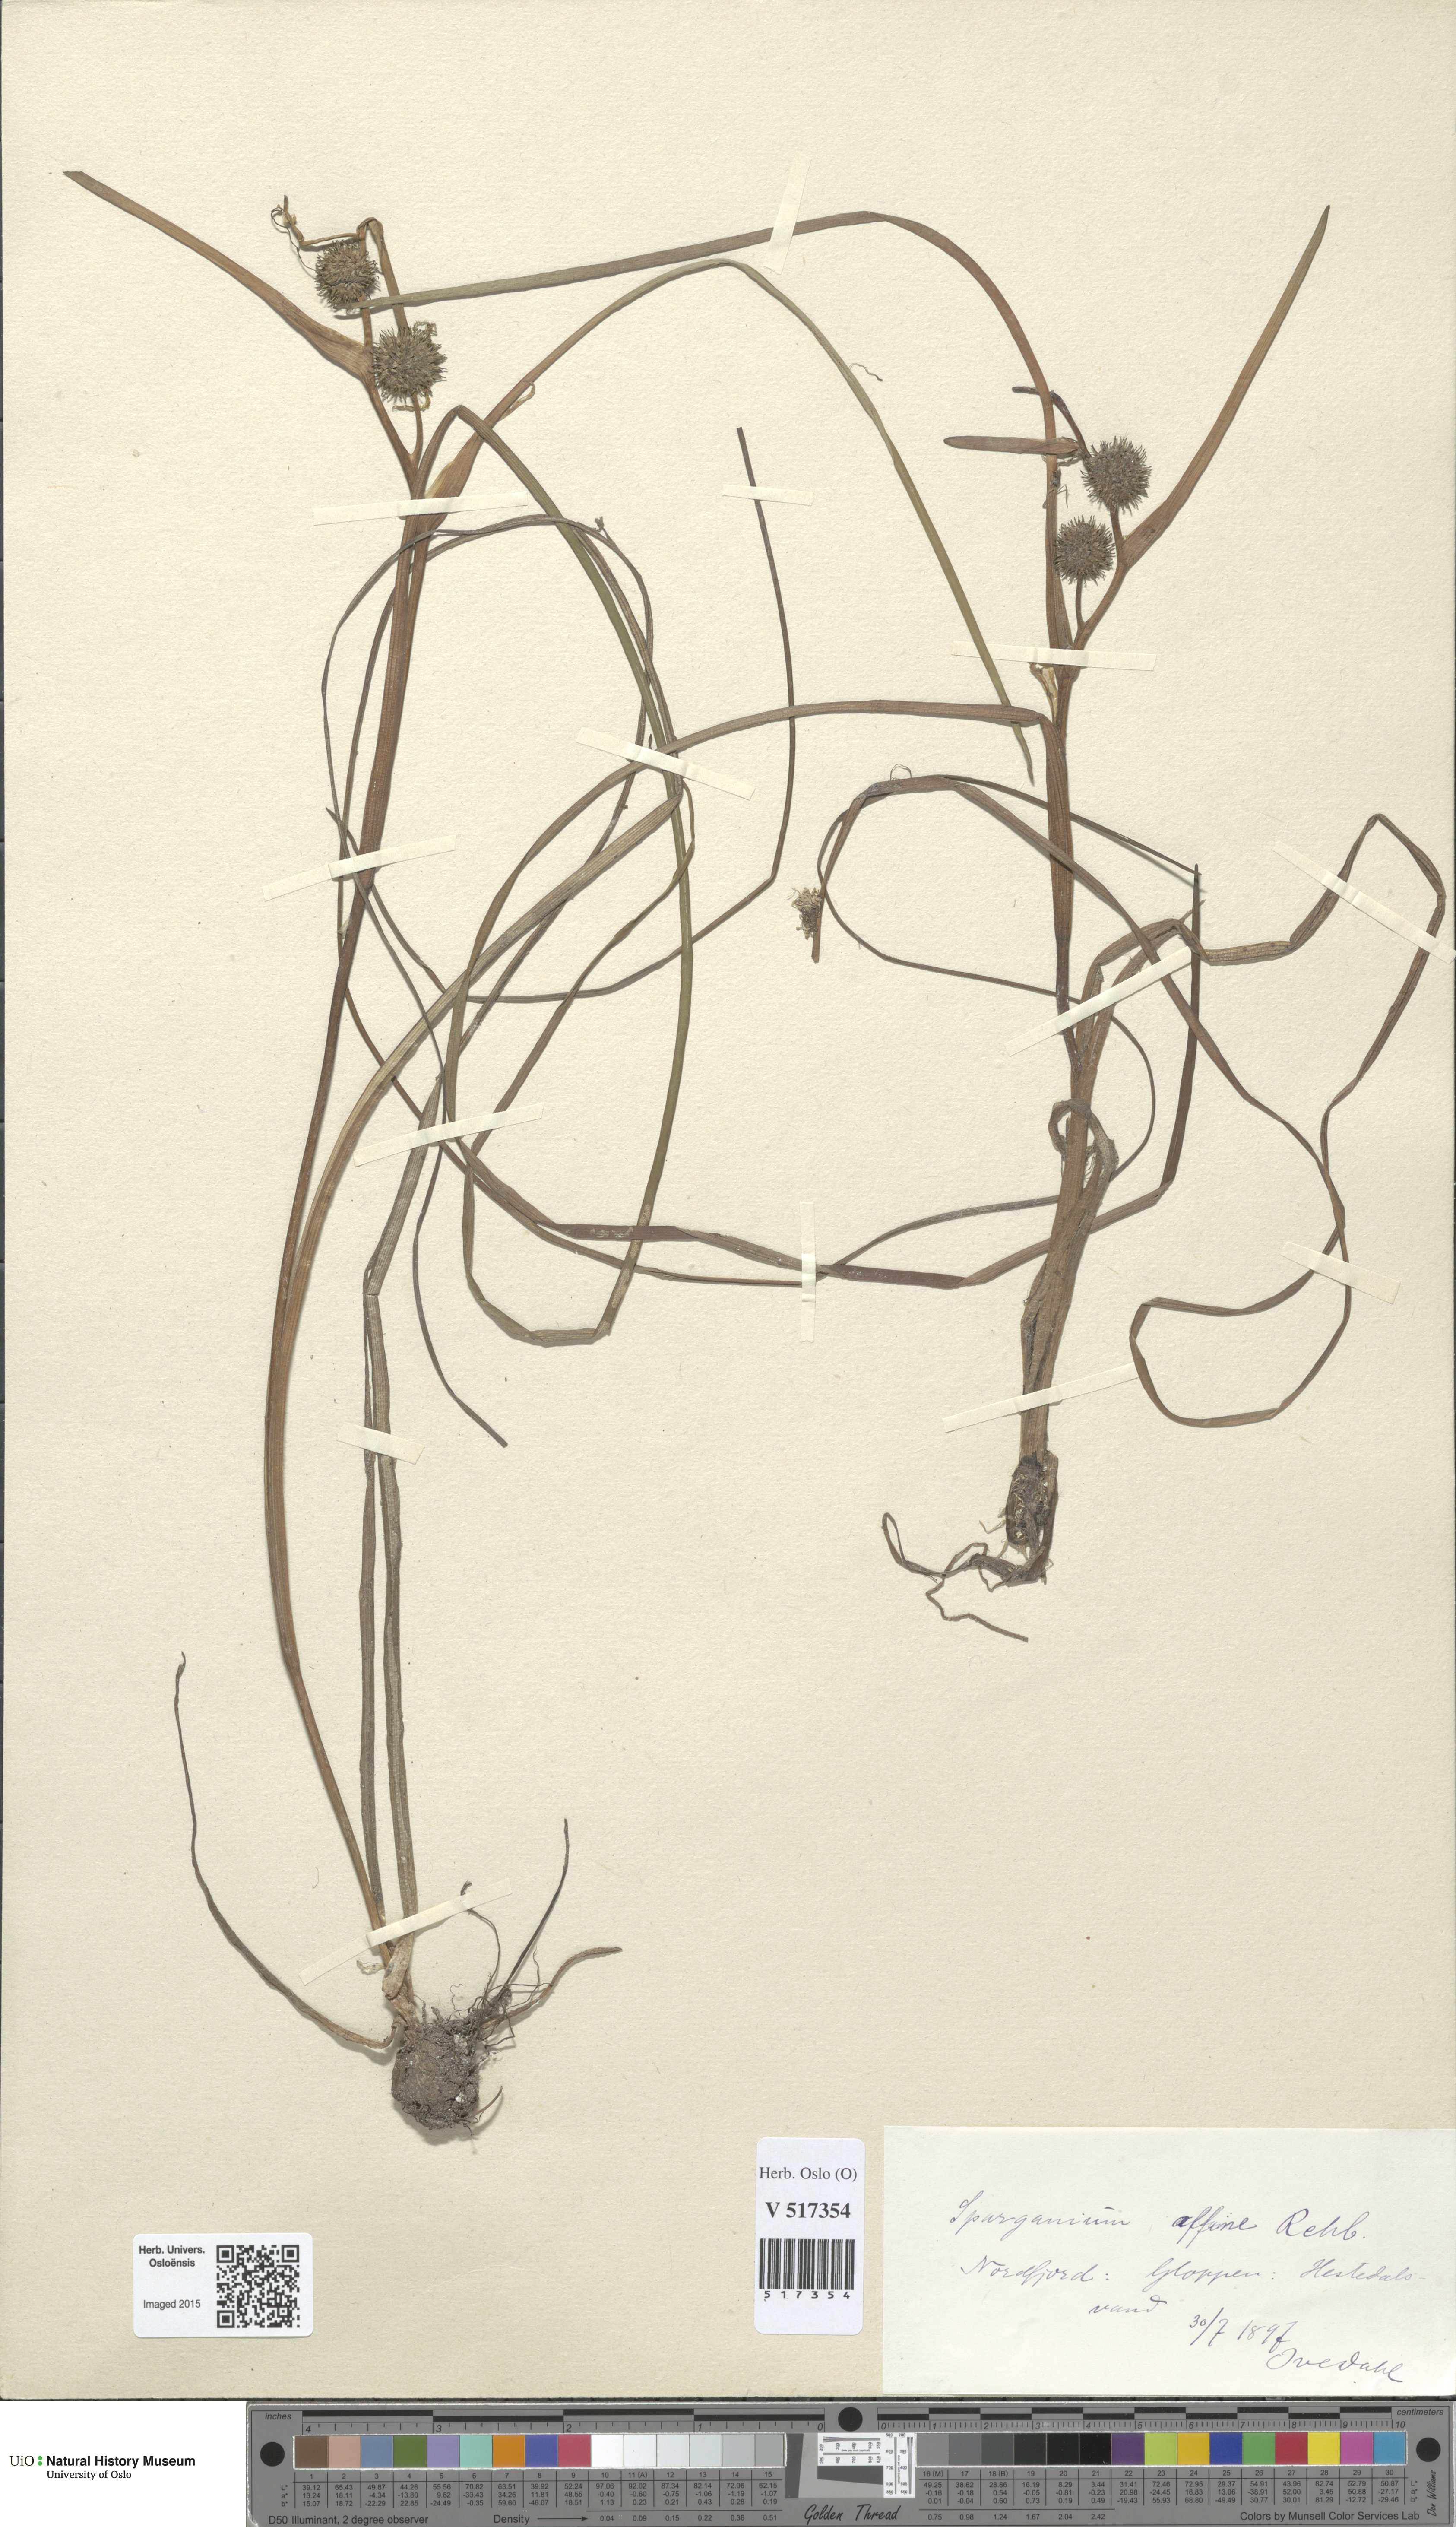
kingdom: Plantae
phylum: Tracheophyta
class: Liliopsida
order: Poales
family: Typhaceae
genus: Sparganium
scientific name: Sparganium angustifolium
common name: Floating bur-reed
